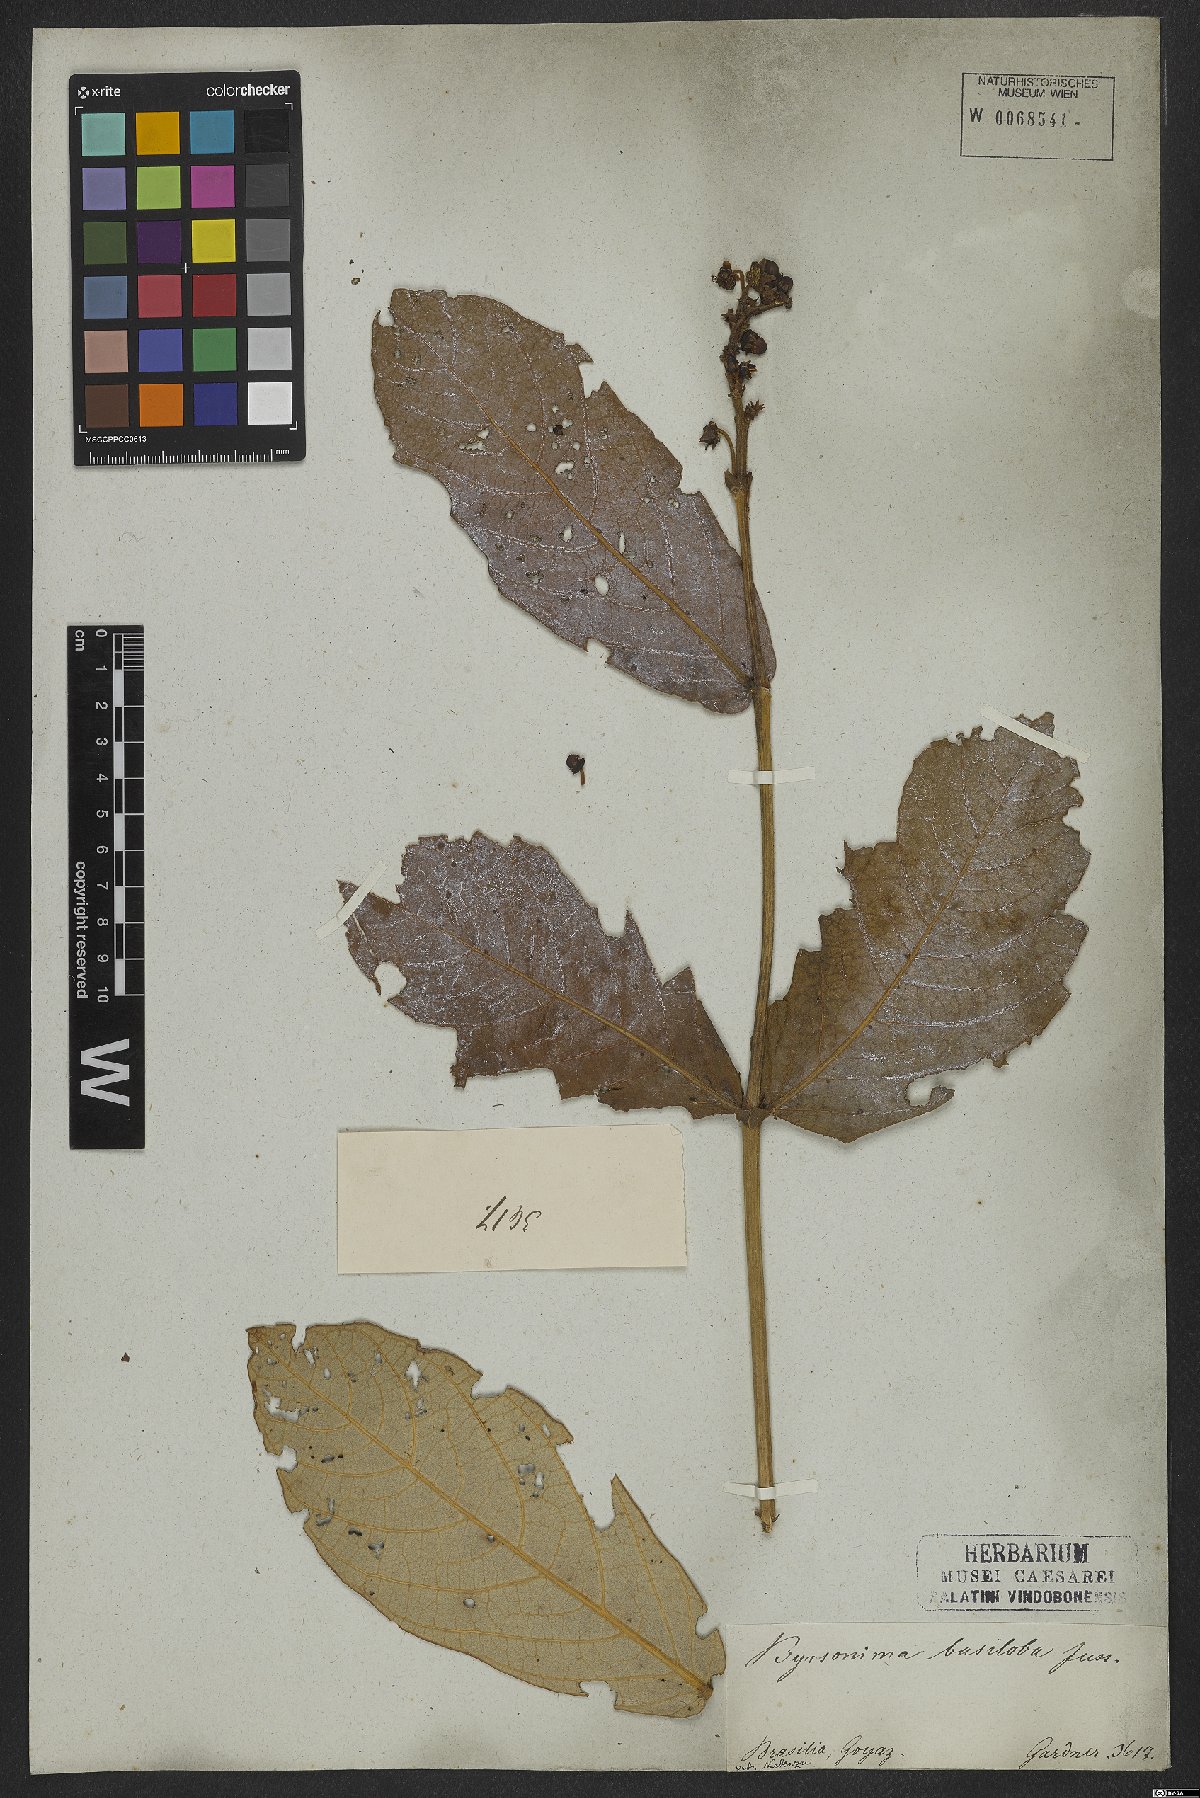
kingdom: Plantae
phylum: Tracheophyta
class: Magnoliopsida
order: Malpighiales
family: Malpighiaceae
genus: Byrsonima
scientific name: Byrsonima basiloba
